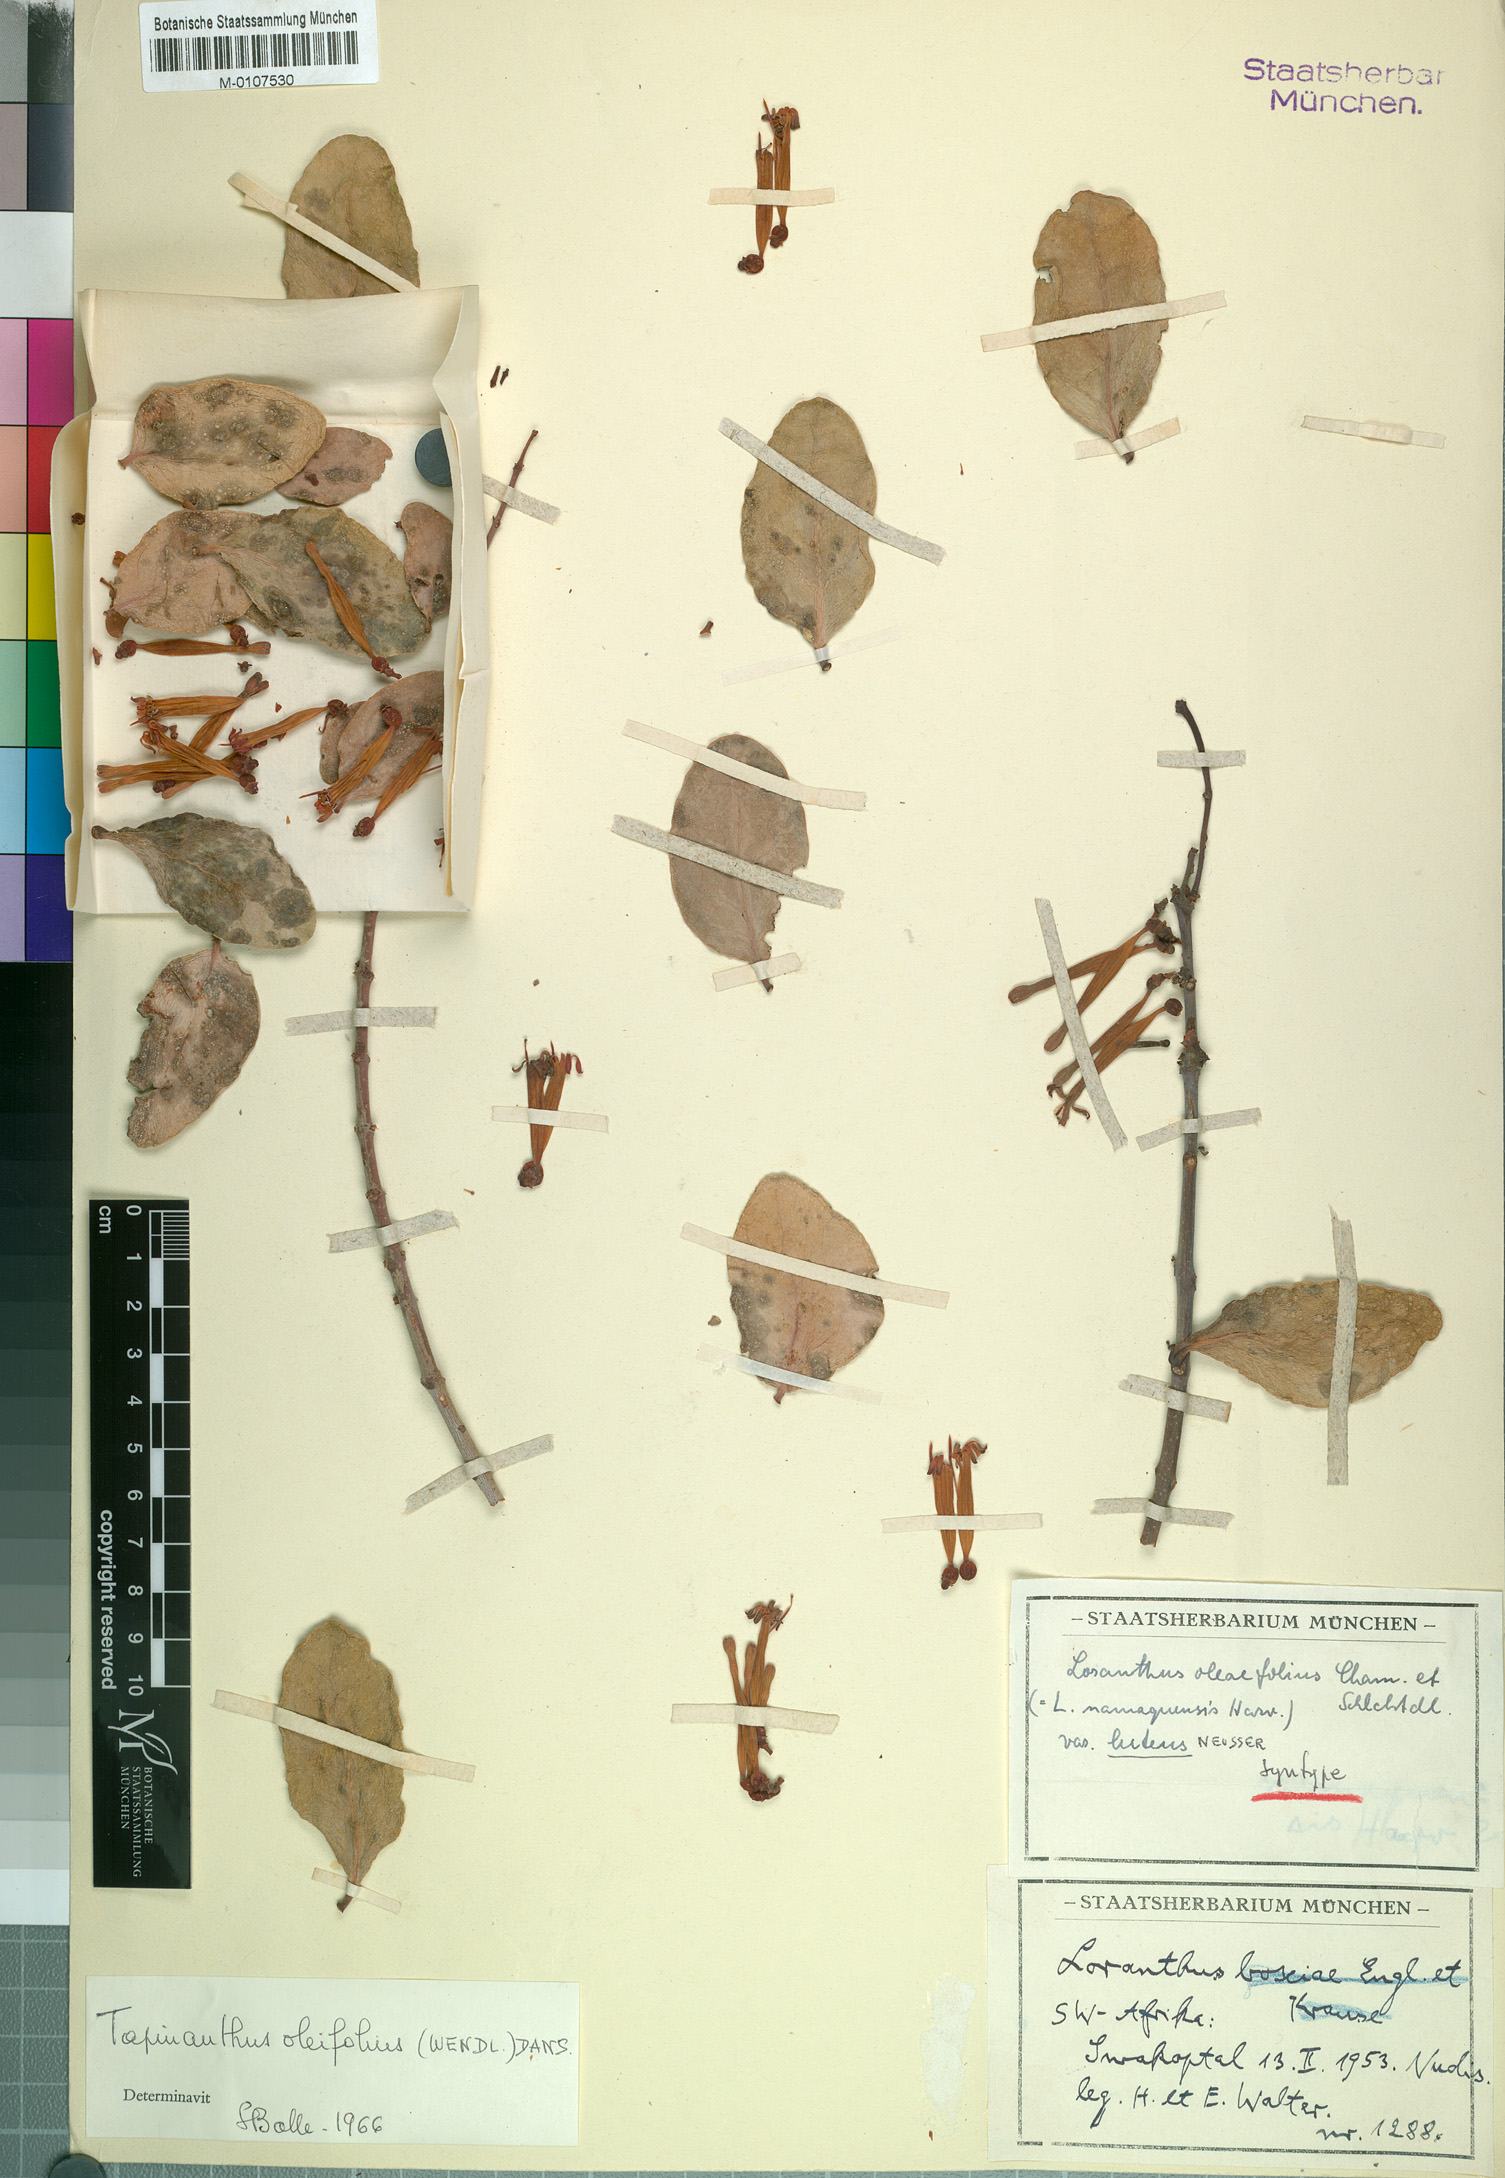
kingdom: Plantae
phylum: Tracheophyta
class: Magnoliopsida
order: Santalales
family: Loranthaceae
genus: Tapinanthus
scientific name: Tapinanthus oleifolius
